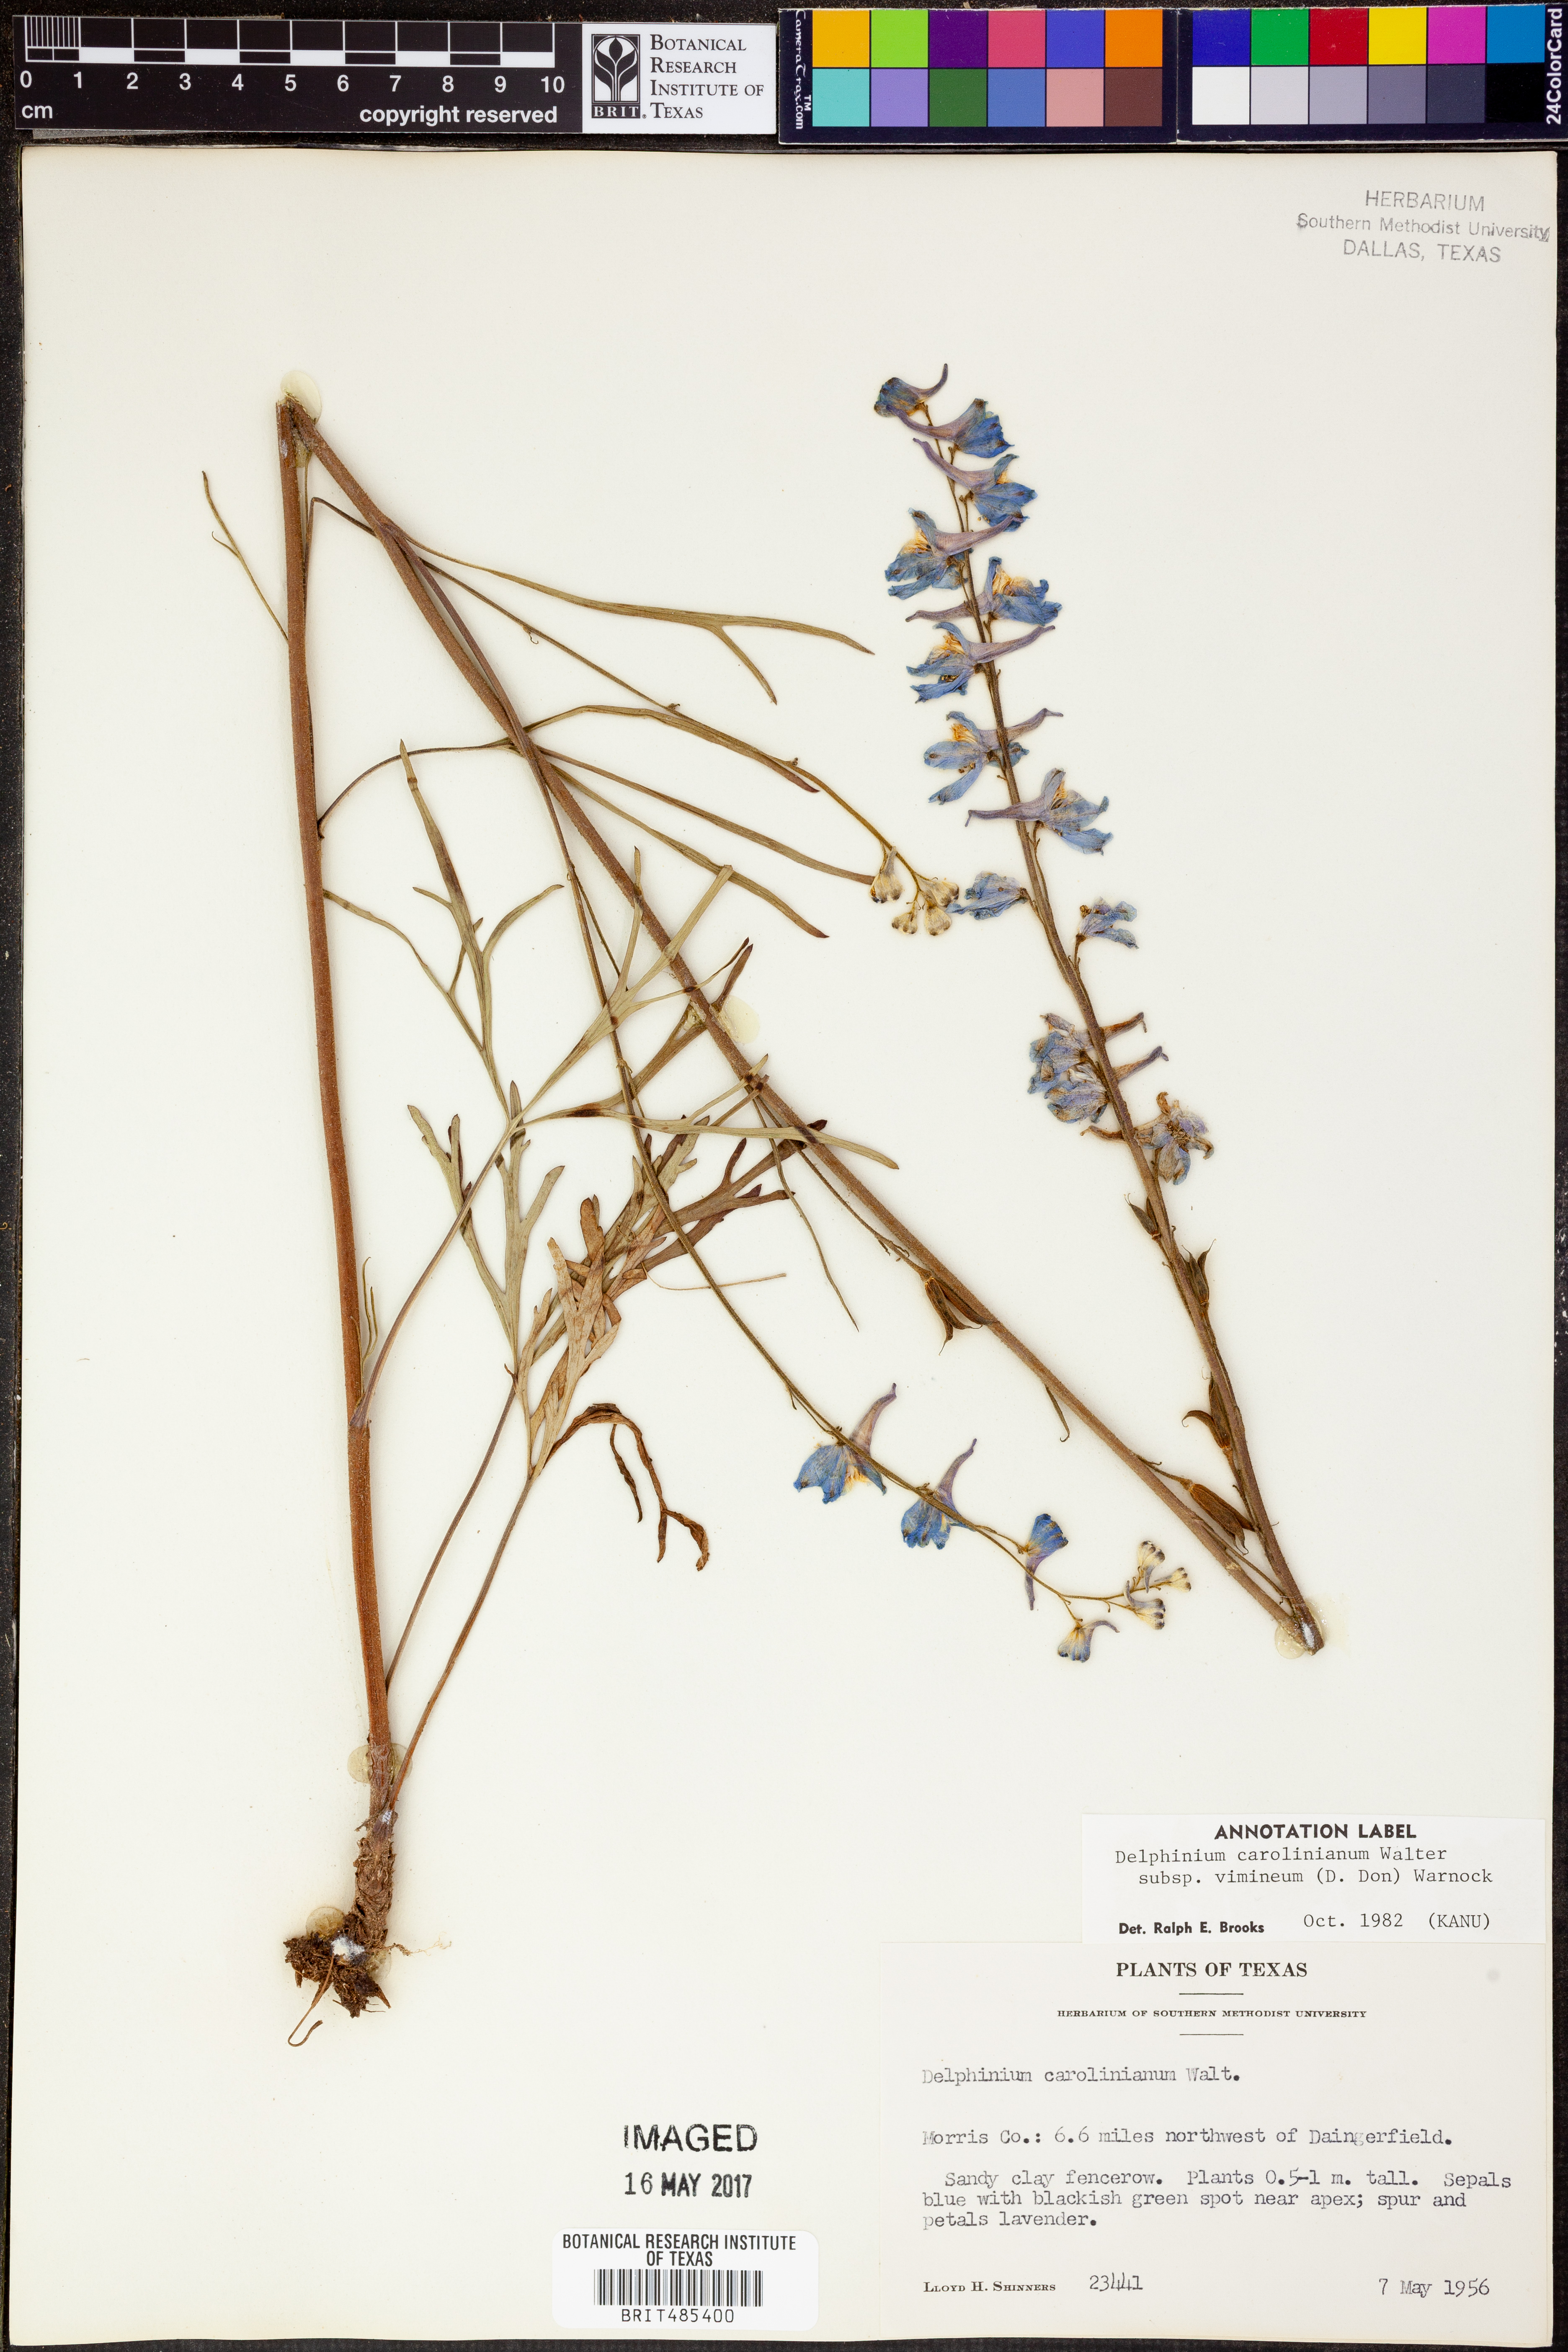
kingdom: Plantae
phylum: Tracheophyta
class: Magnoliopsida
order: Ranunculales
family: Ranunculaceae
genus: Delphinium
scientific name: Delphinium carolinianum
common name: Carolina larkspur
